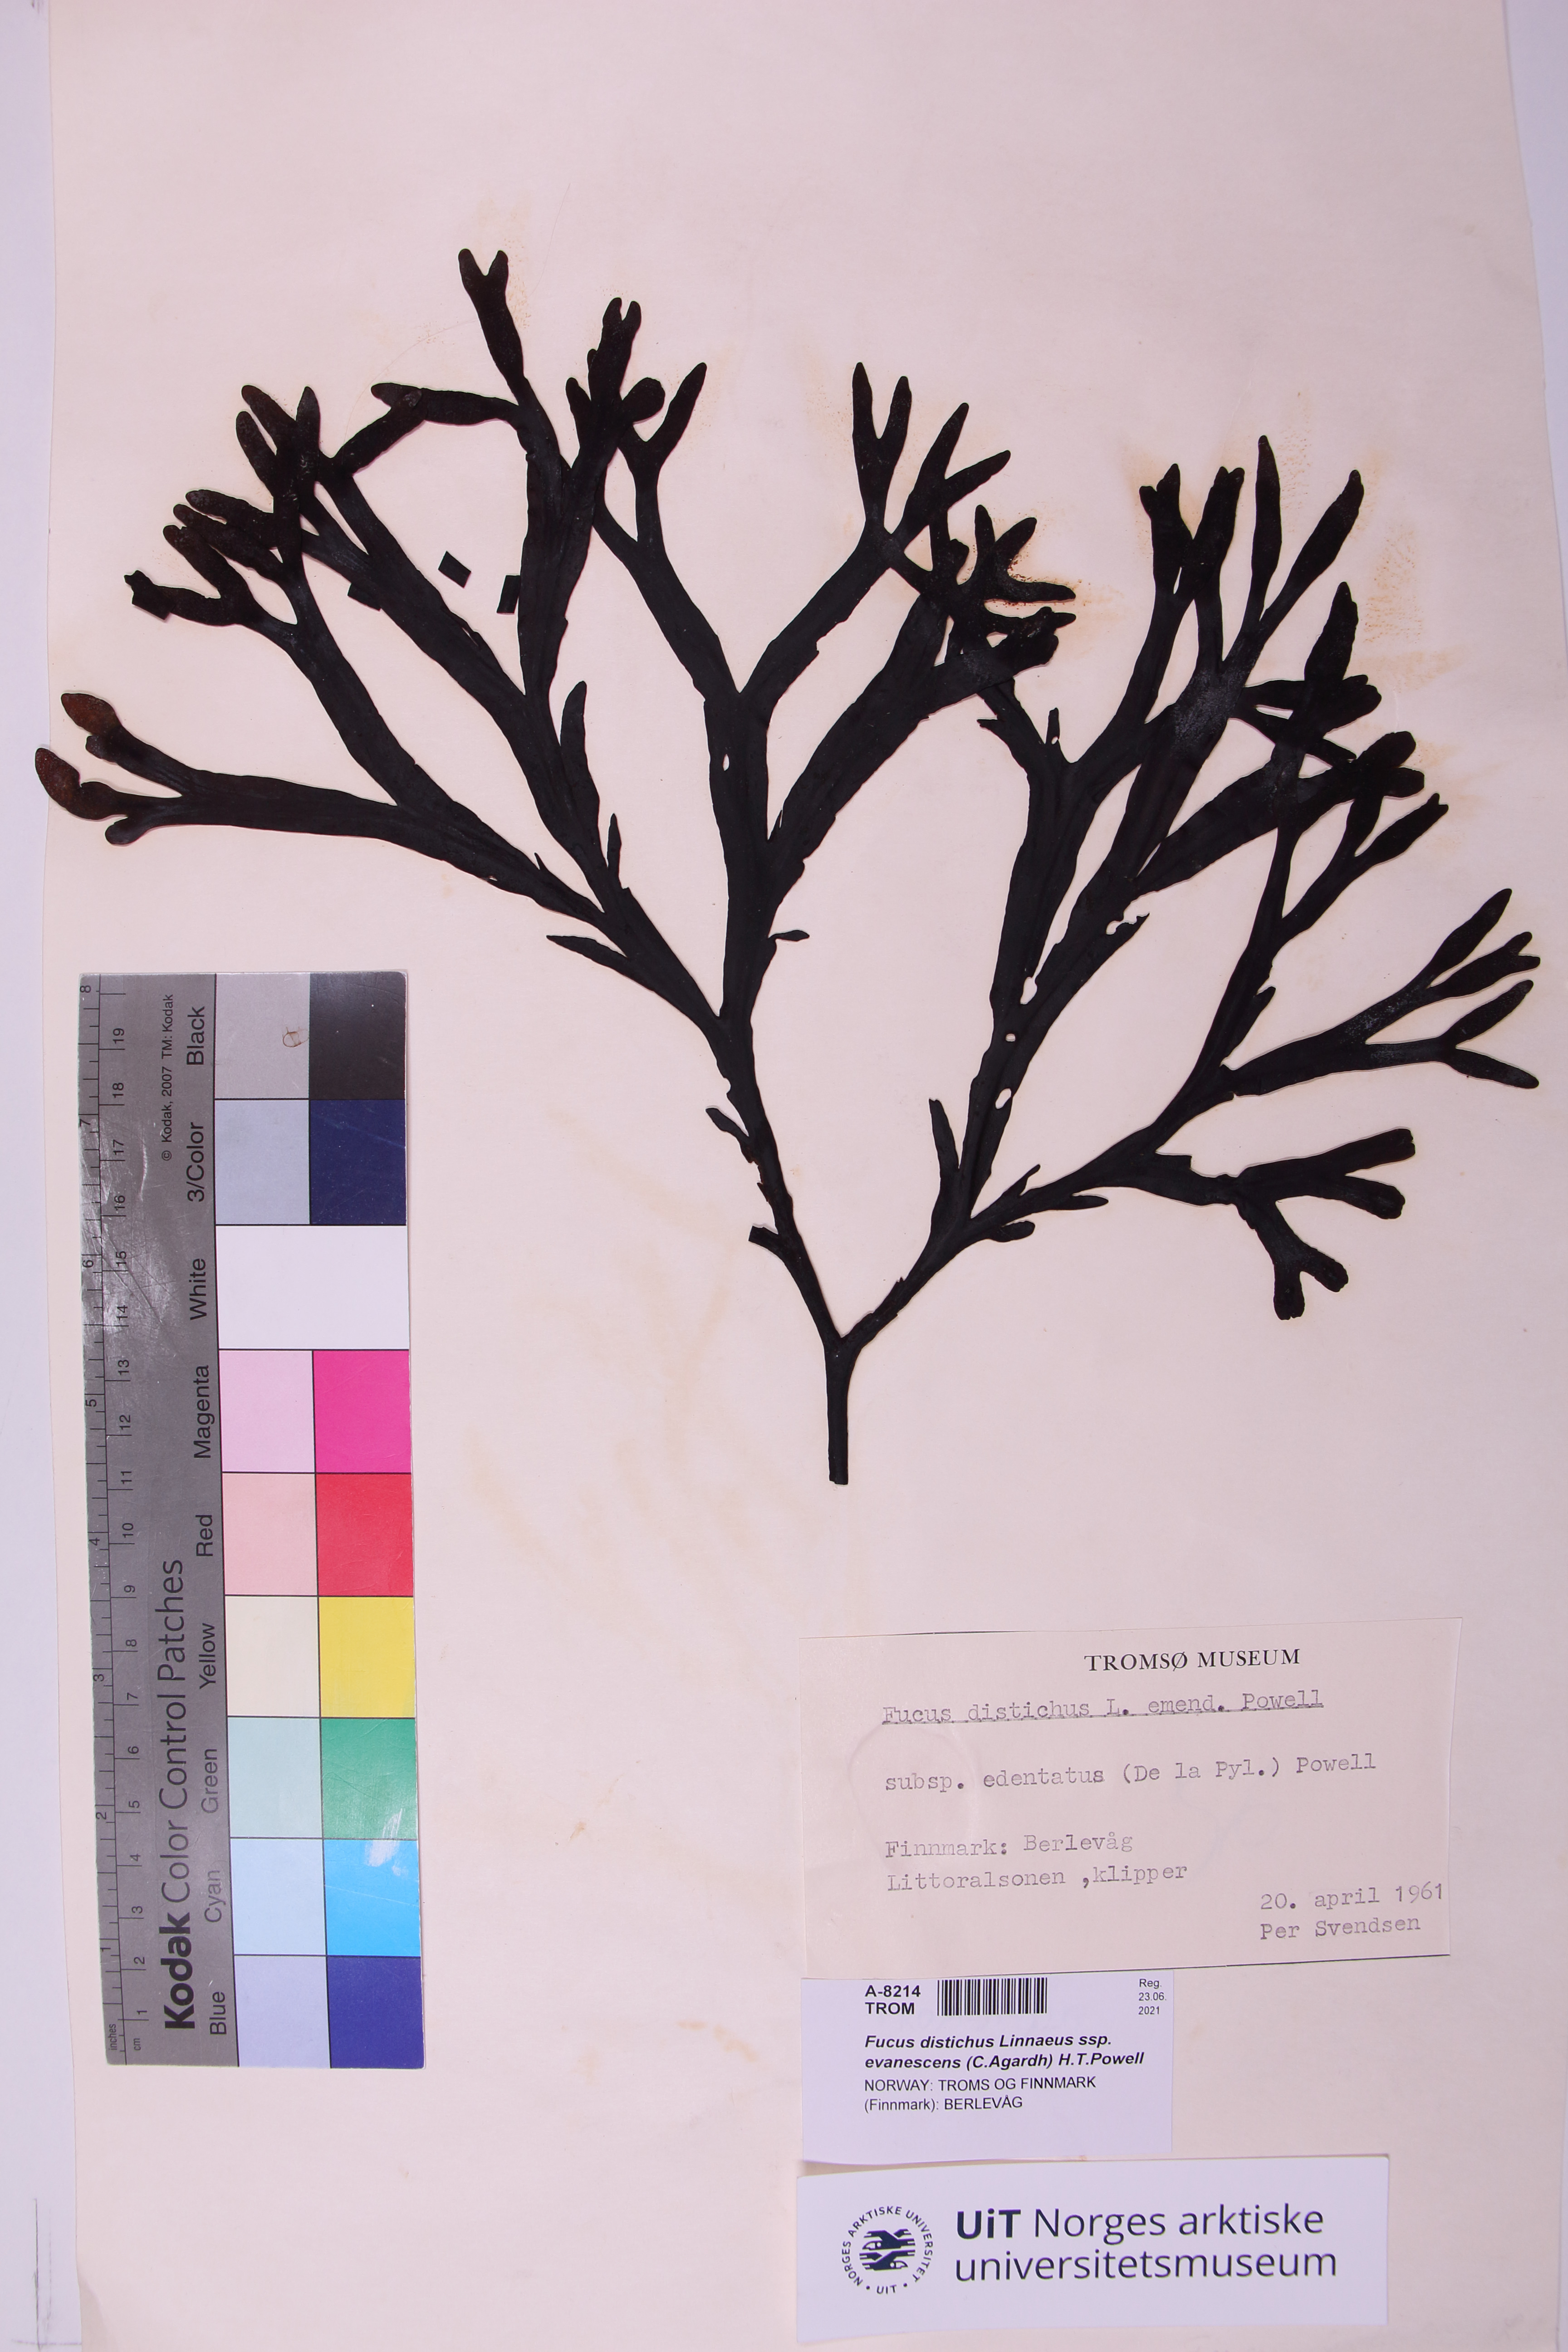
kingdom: Chromista
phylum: Ochrophyta
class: Phaeophyceae
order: Fucales
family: Fucaceae
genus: Fucus
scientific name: Fucus evanescens
